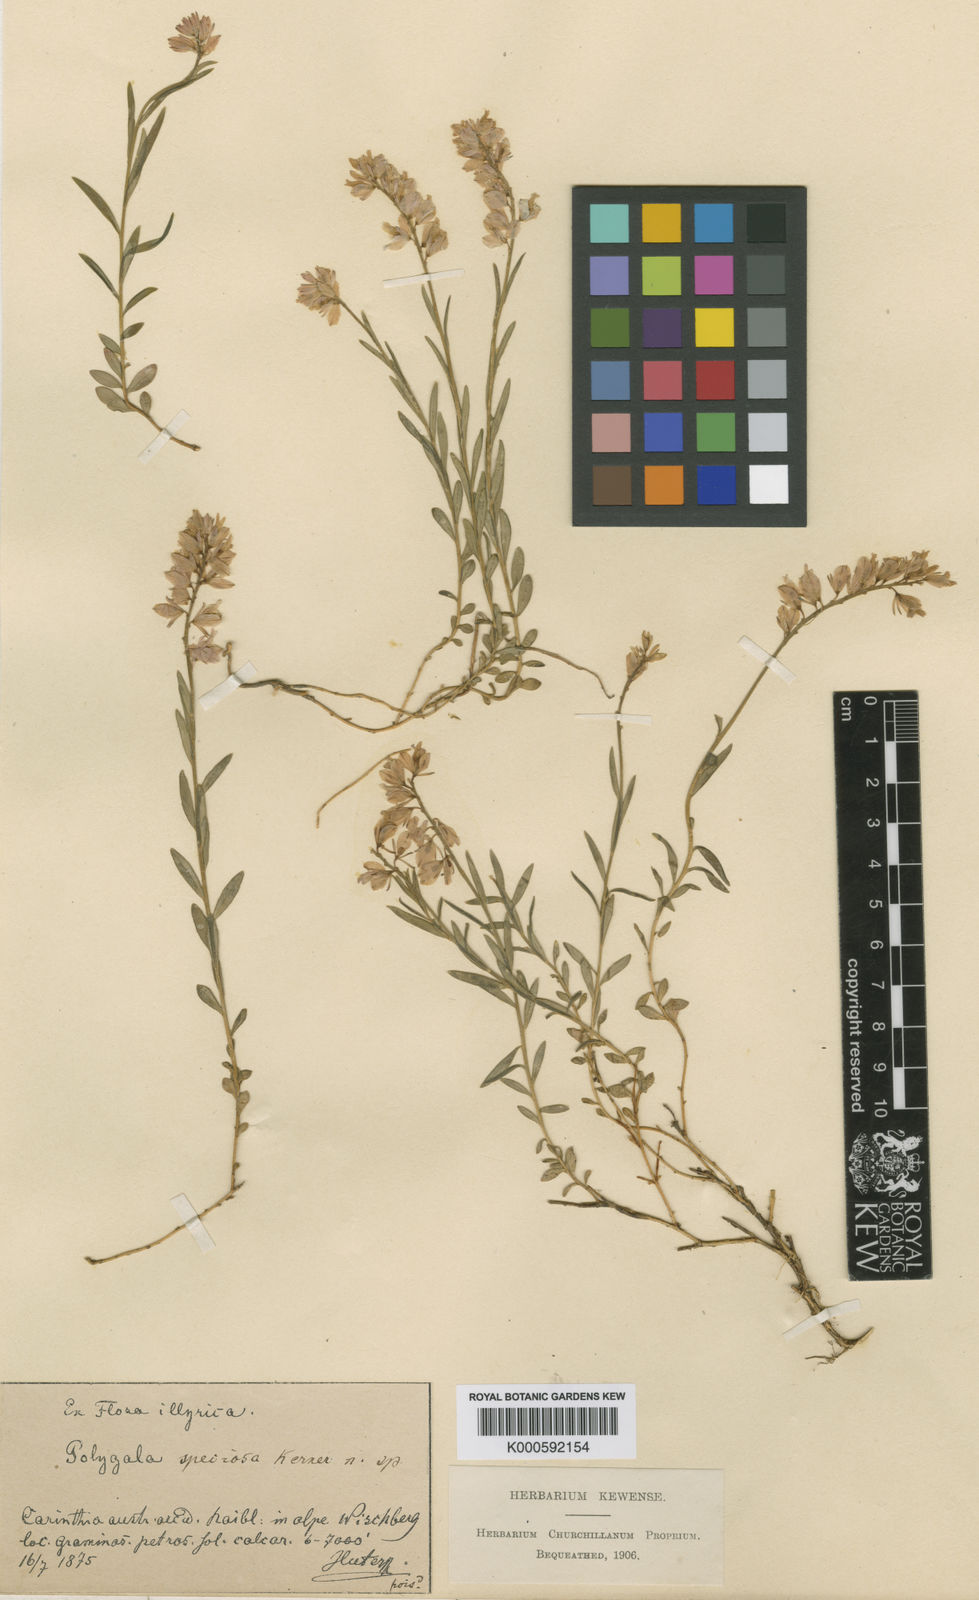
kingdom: Plantae
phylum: Tracheophyta
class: Magnoliopsida
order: Fabales
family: Polygalaceae
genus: Polygala
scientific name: Polygala nicaeensis
